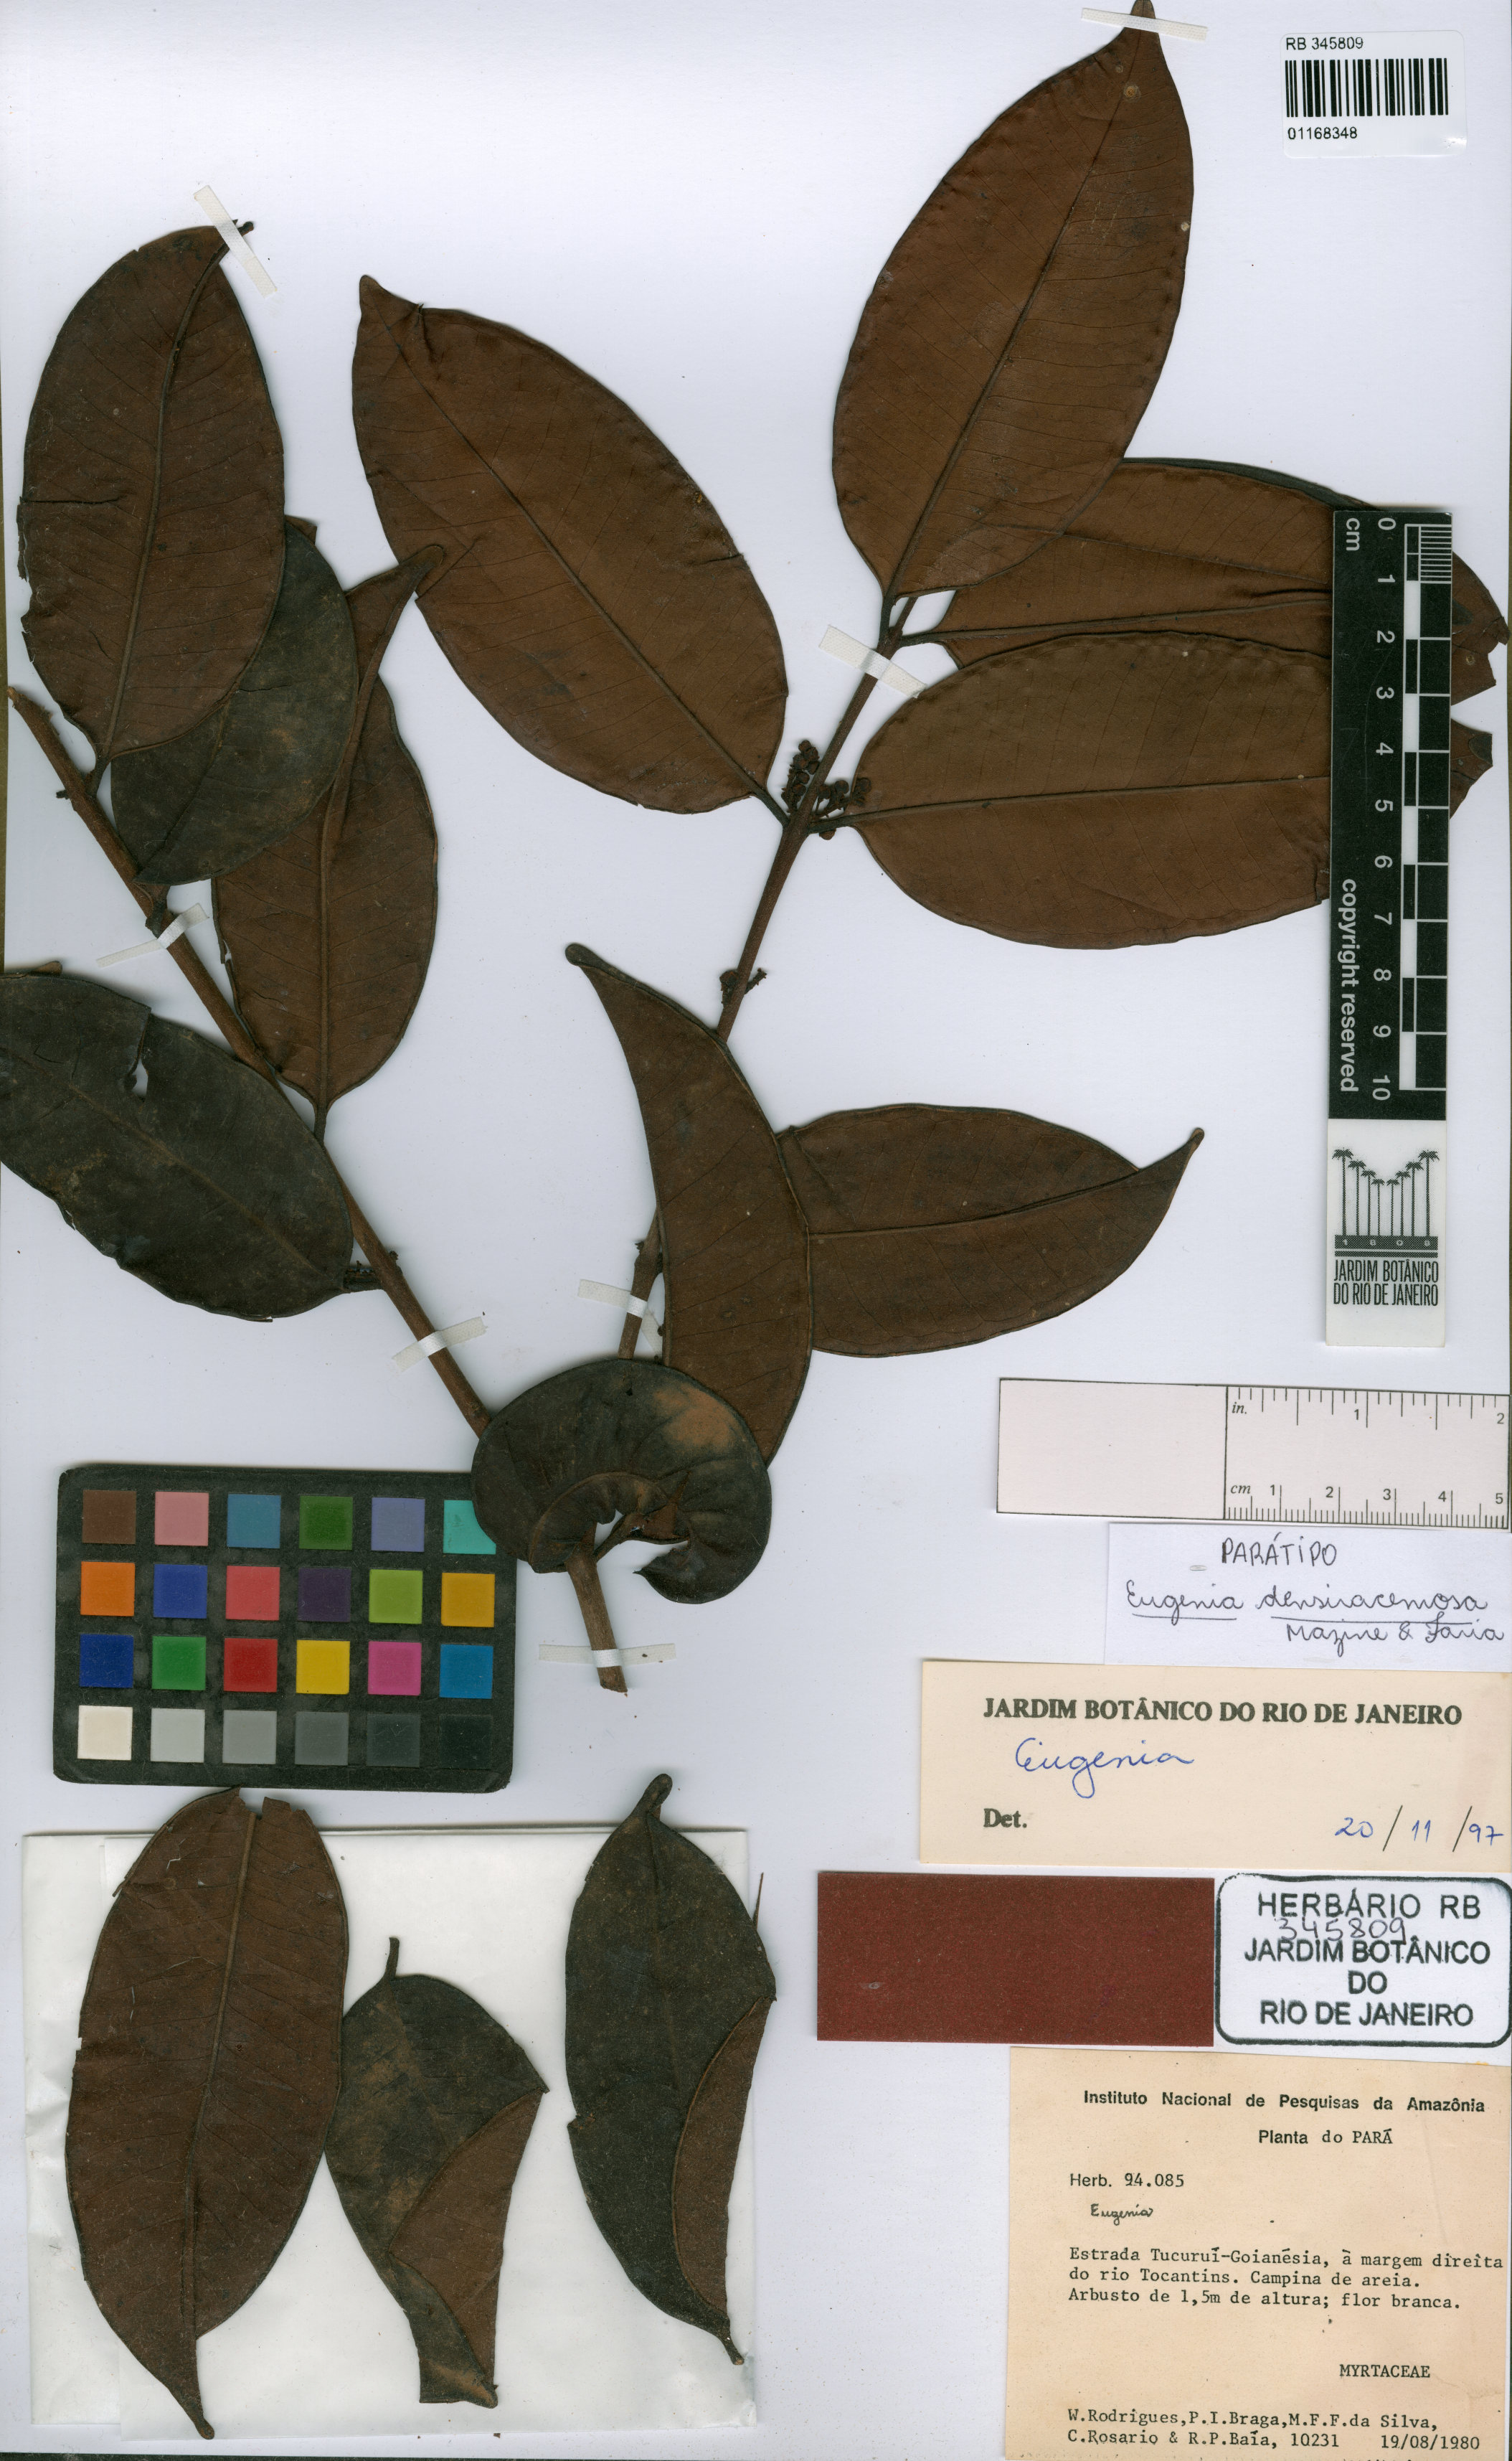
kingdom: Plantae
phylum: Tracheophyta
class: Magnoliopsida
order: Myrtales
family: Myrtaceae
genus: Eugenia
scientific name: Eugenia densiracemosa
